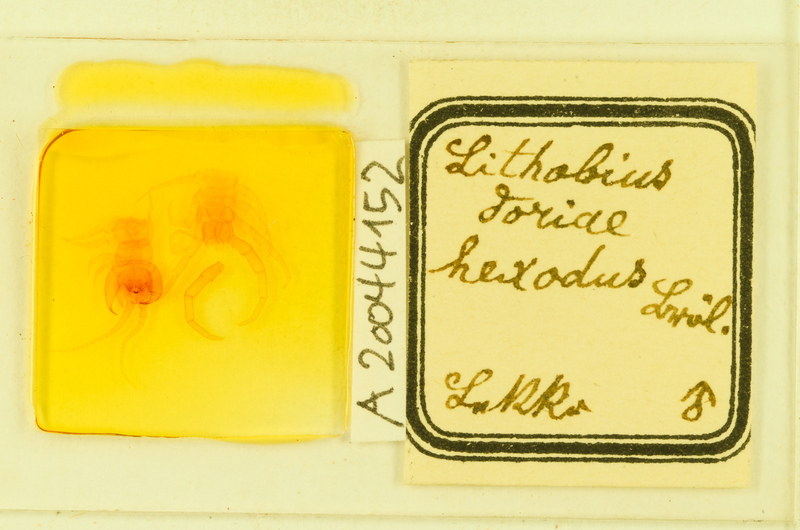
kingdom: Animalia
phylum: Arthropoda
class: Chilopoda
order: Lithobiomorpha
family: Lithobiidae
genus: Lithobius
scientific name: Lithobius pilicornis
